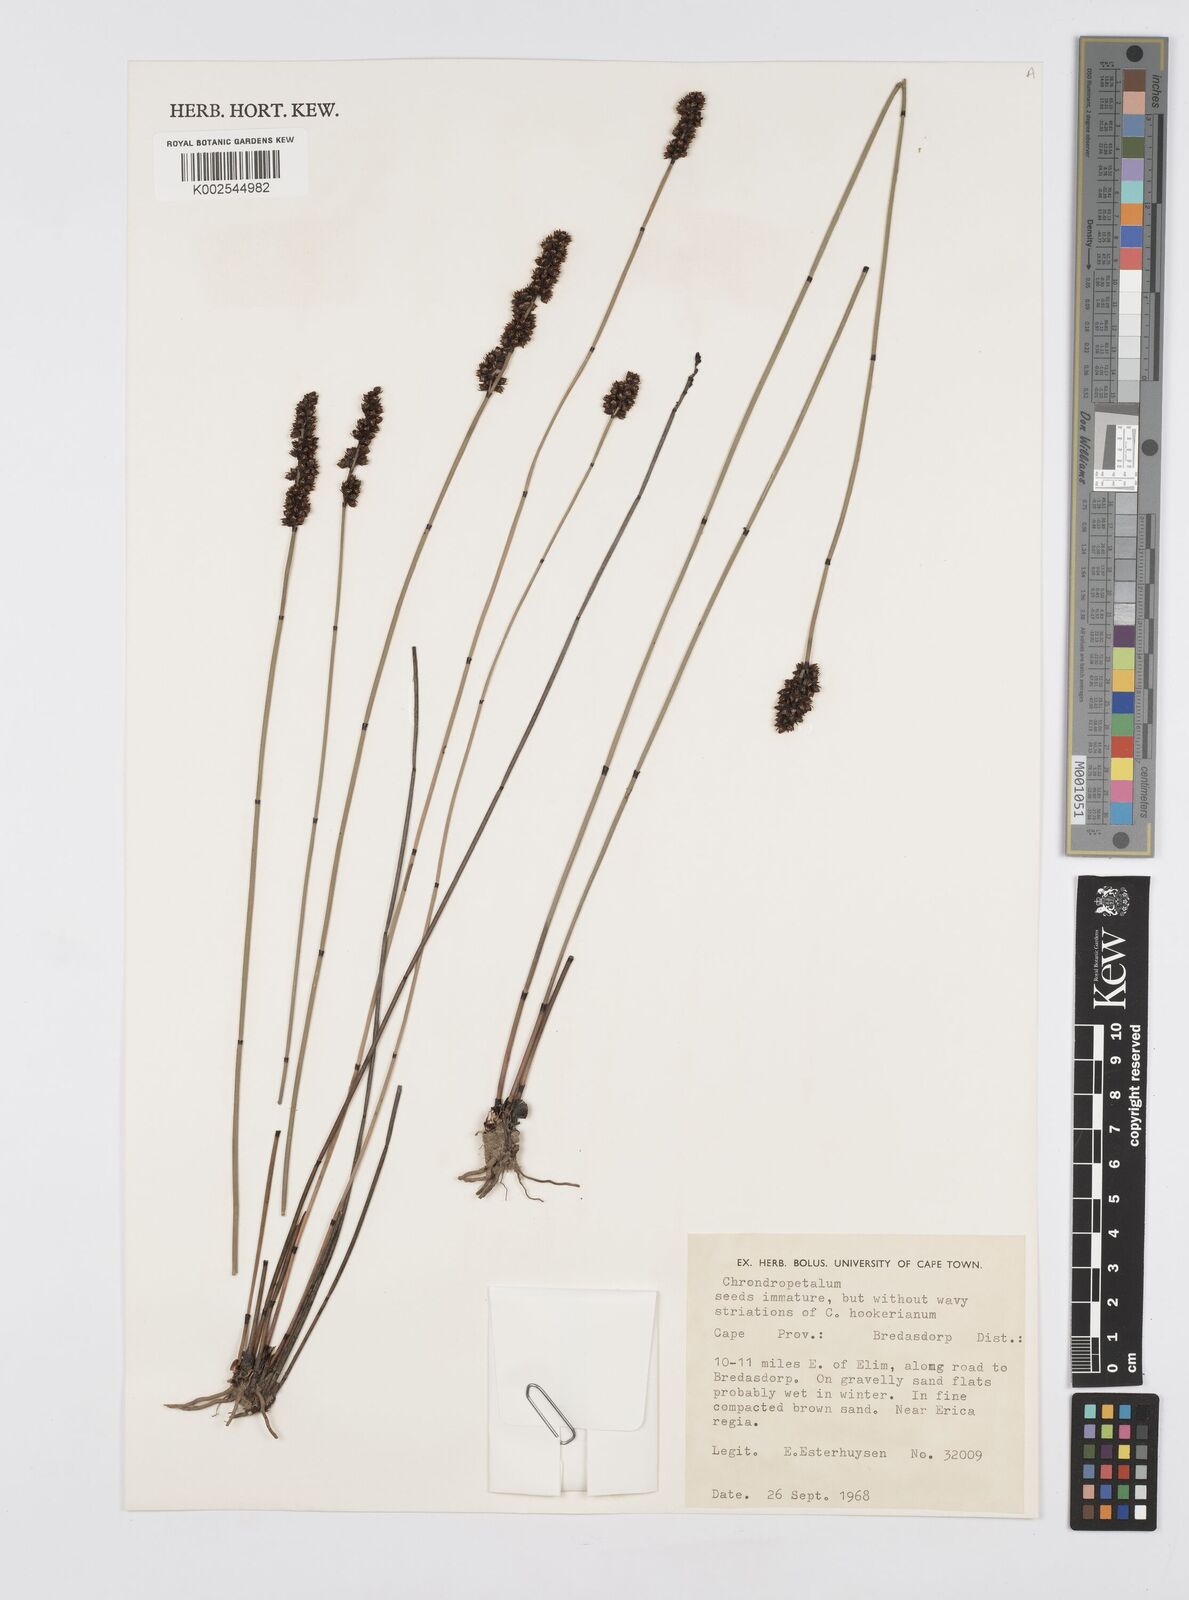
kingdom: Plantae
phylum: Tracheophyta
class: Liliopsida
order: Poales
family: Restionaceae
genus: Elegia
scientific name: Elegia
